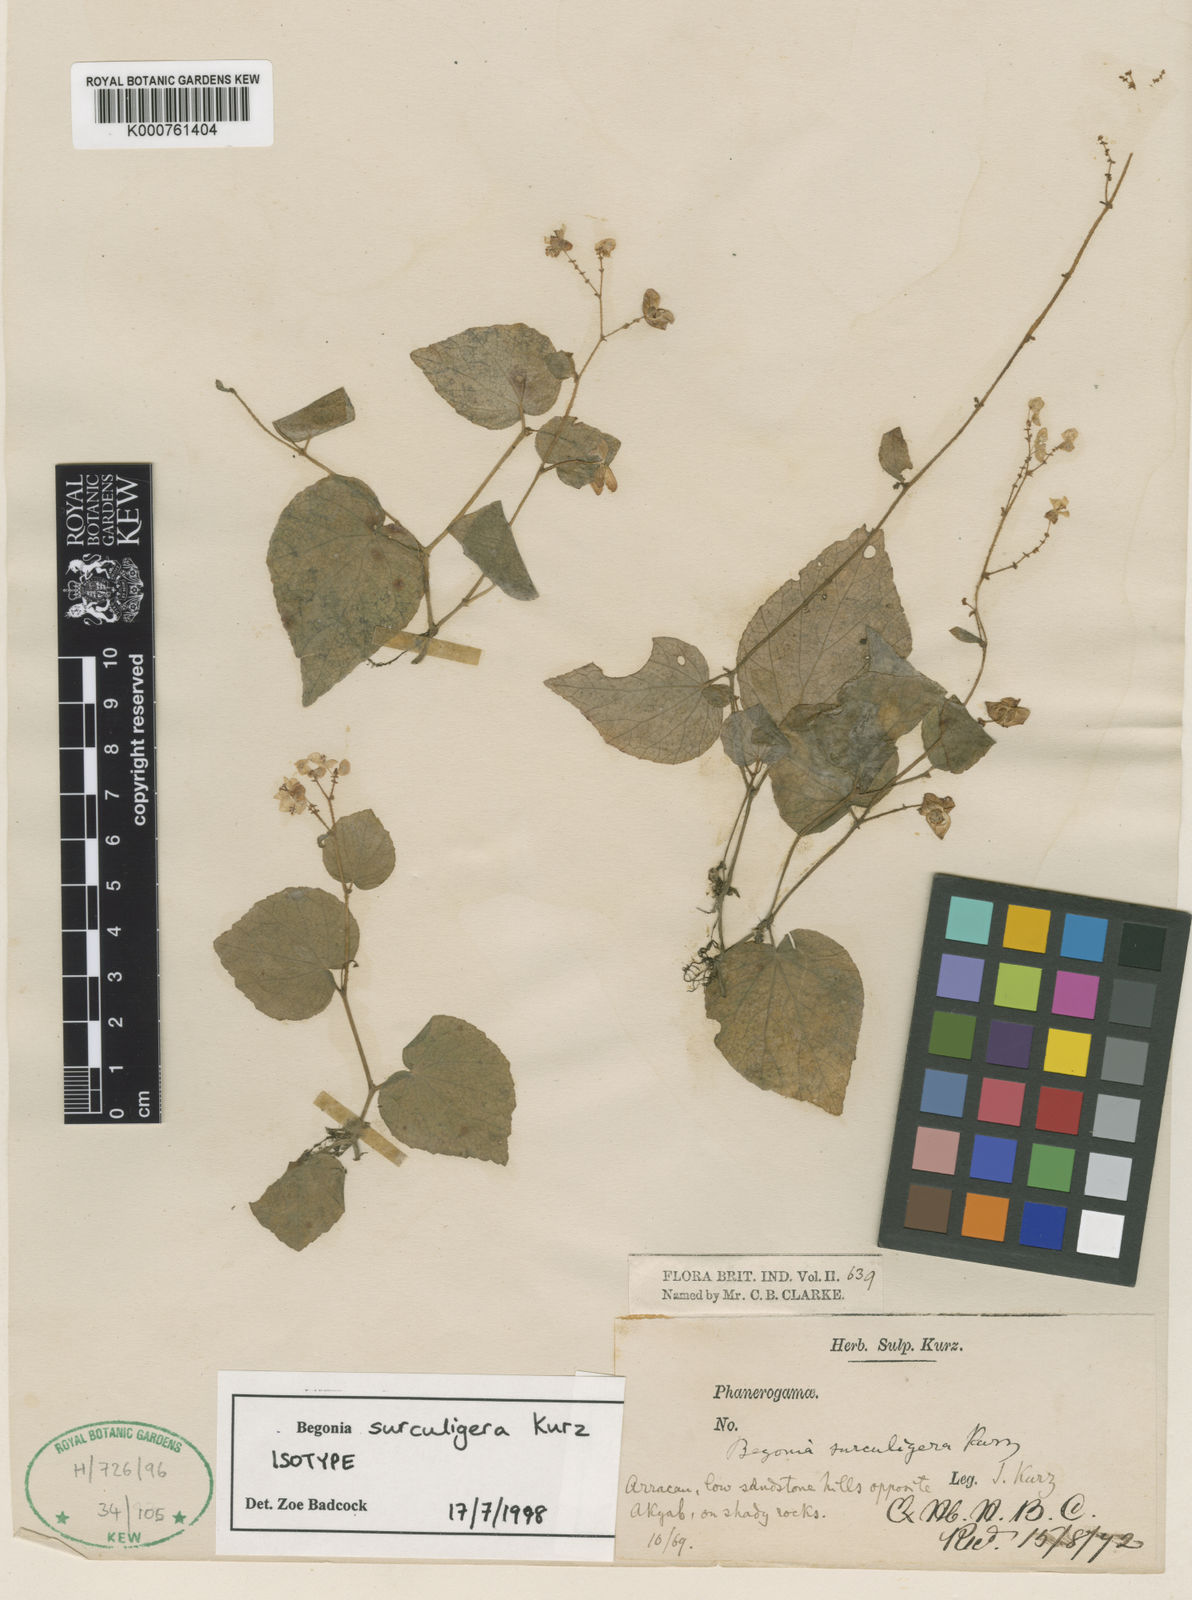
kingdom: Plantae
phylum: Tracheophyta
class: Magnoliopsida
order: Cucurbitales
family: Begoniaceae
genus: Begonia
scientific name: Begonia surculigera
